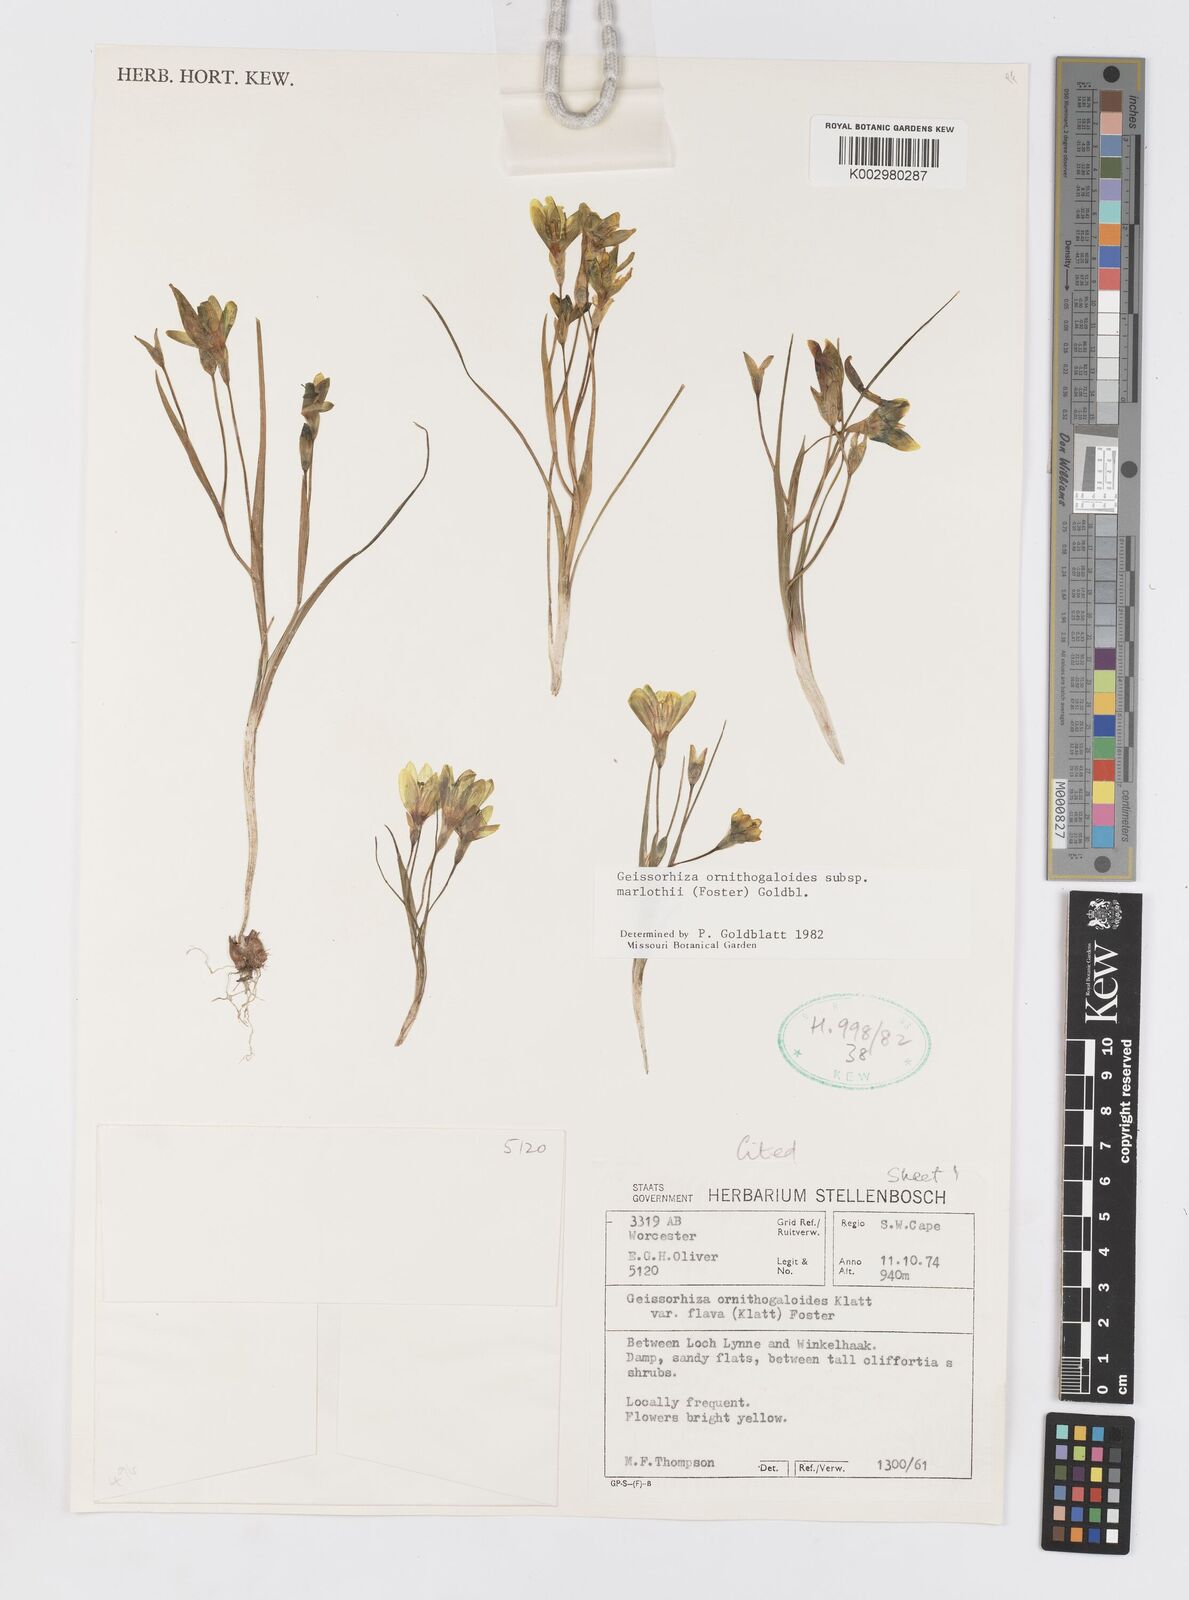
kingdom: Plantae
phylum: Tracheophyta
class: Liliopsida
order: Asparagales
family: Iridaceae
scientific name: Iridaceae
